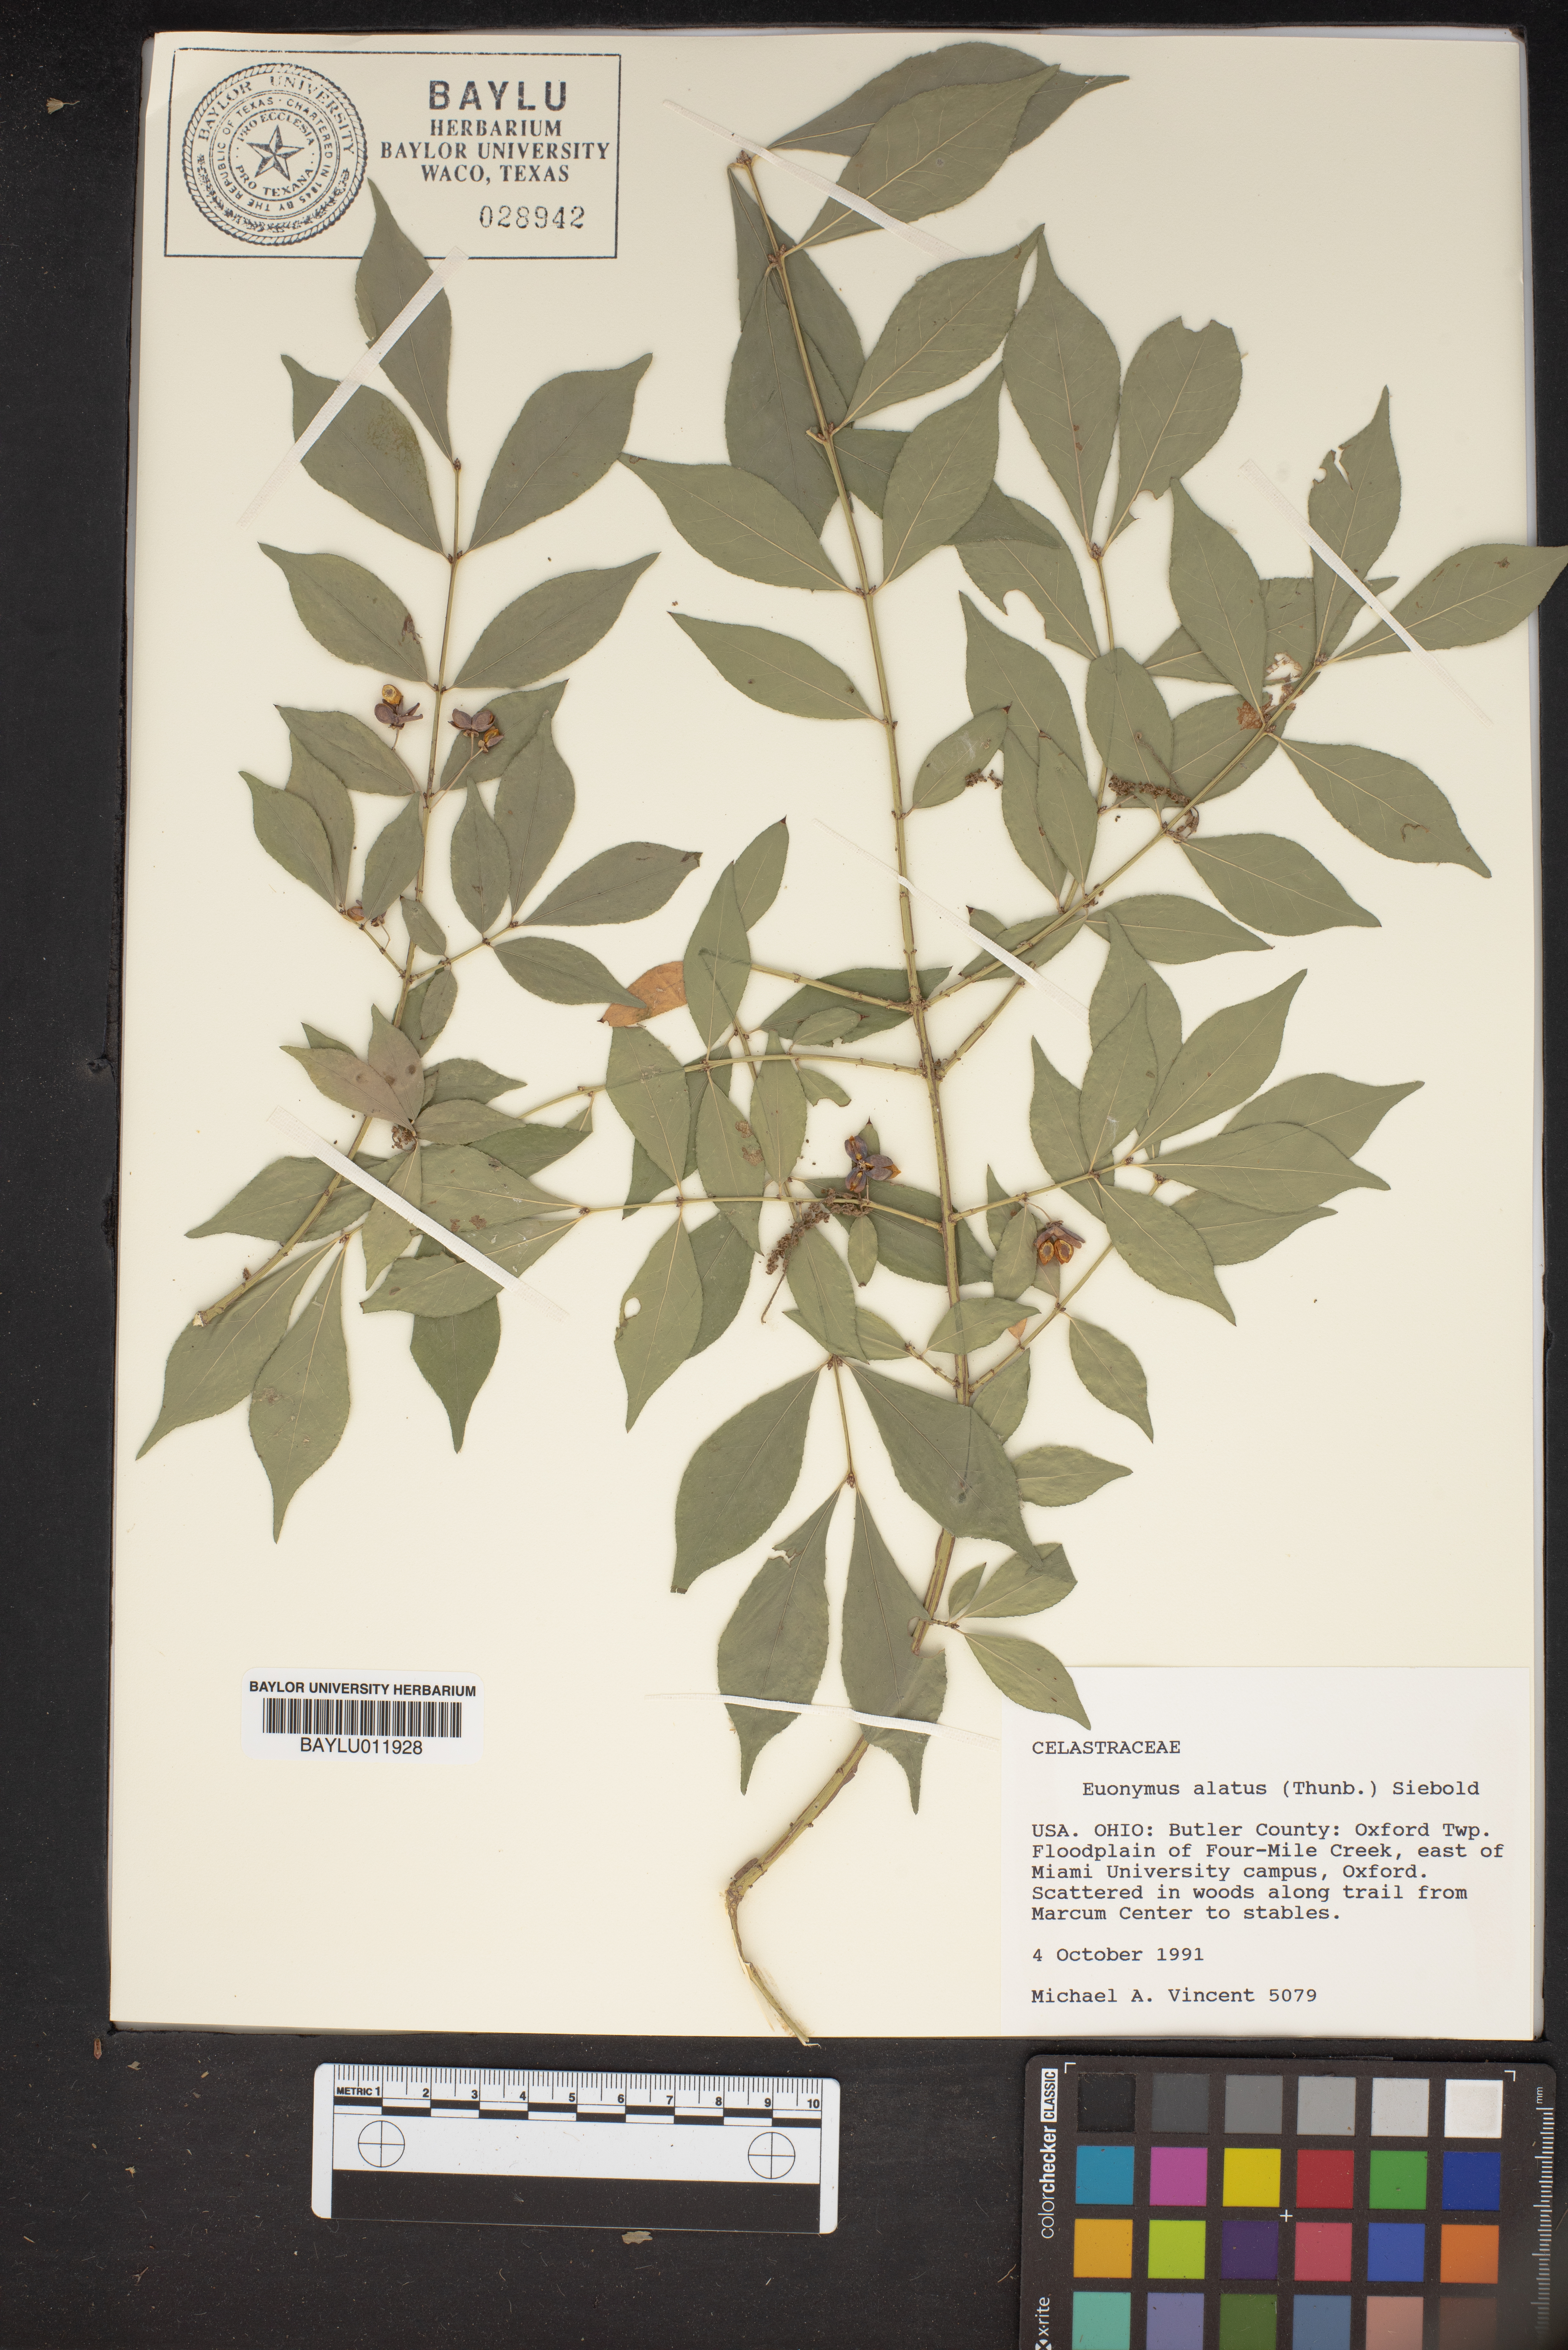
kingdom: Plantae
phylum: Tracheophyta
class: Magnoliopsida
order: Celastrales
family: Celastraceae
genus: Euonymus
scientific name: Euonymus alatus
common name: Winged euonymus
